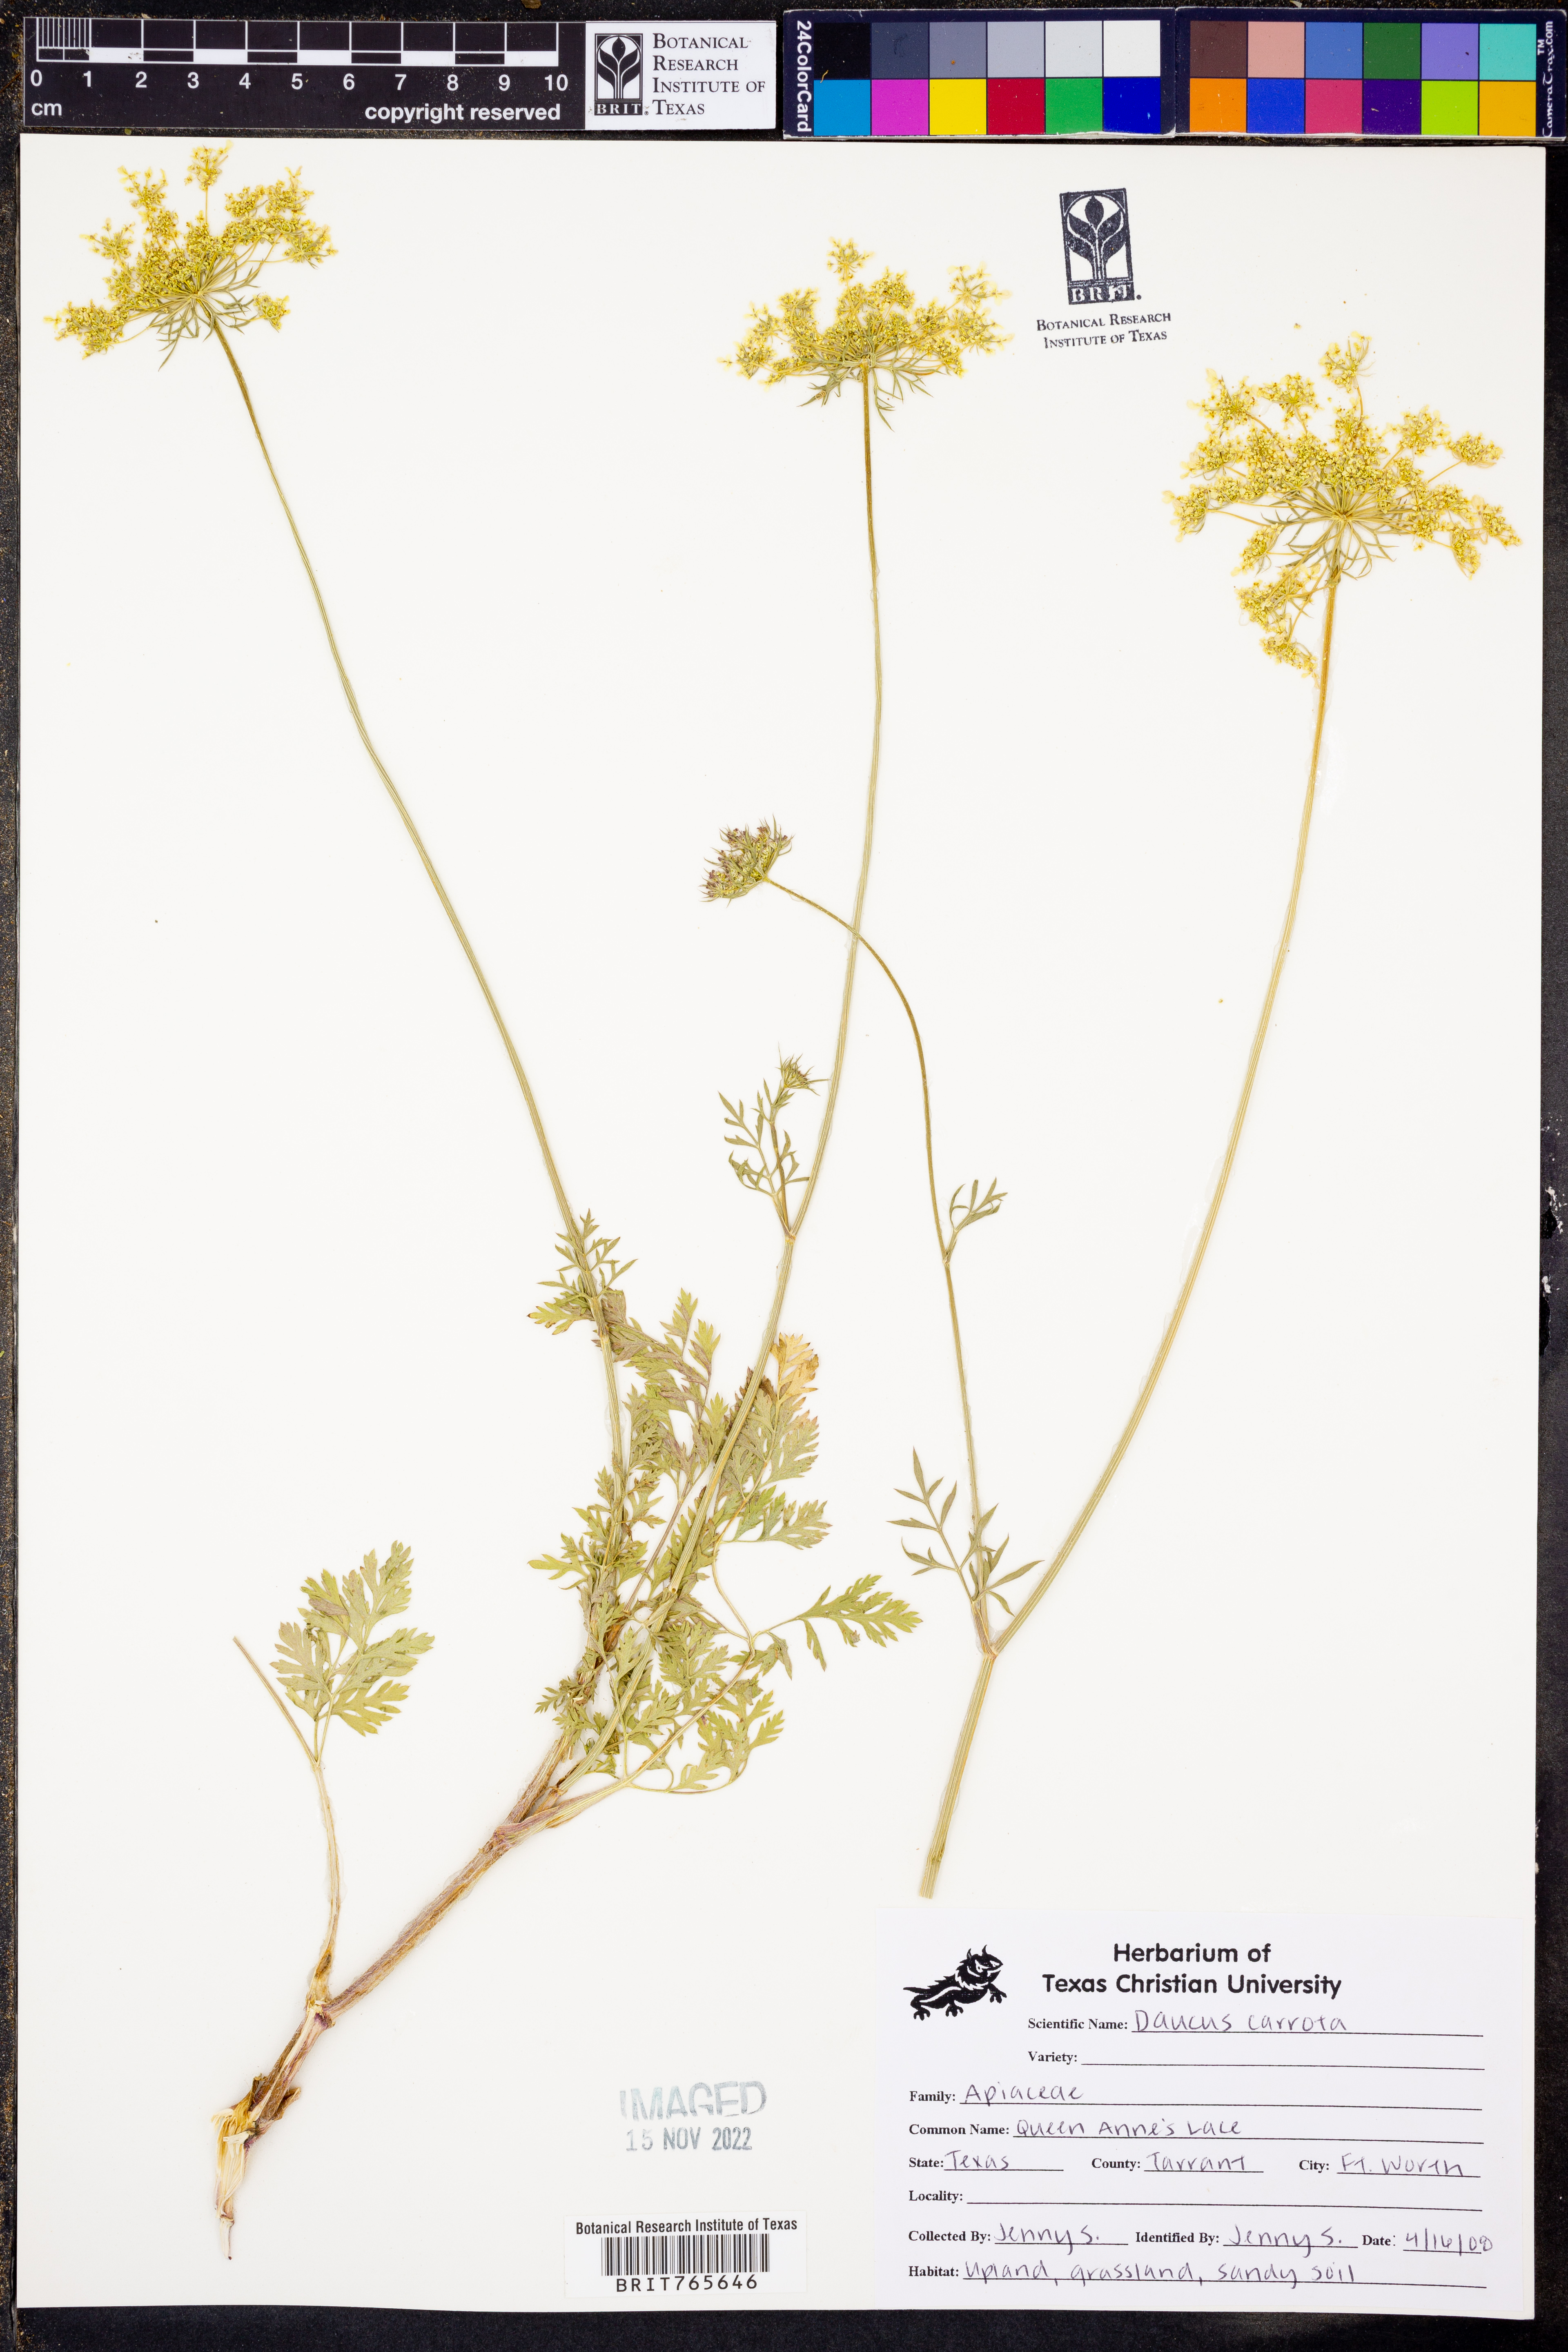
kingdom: Plantae
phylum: Tracheophyta
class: Magnoliopsida
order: Apiales
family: Apiaceae
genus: Daucus
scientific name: Daucus carota
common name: Wild carrot
